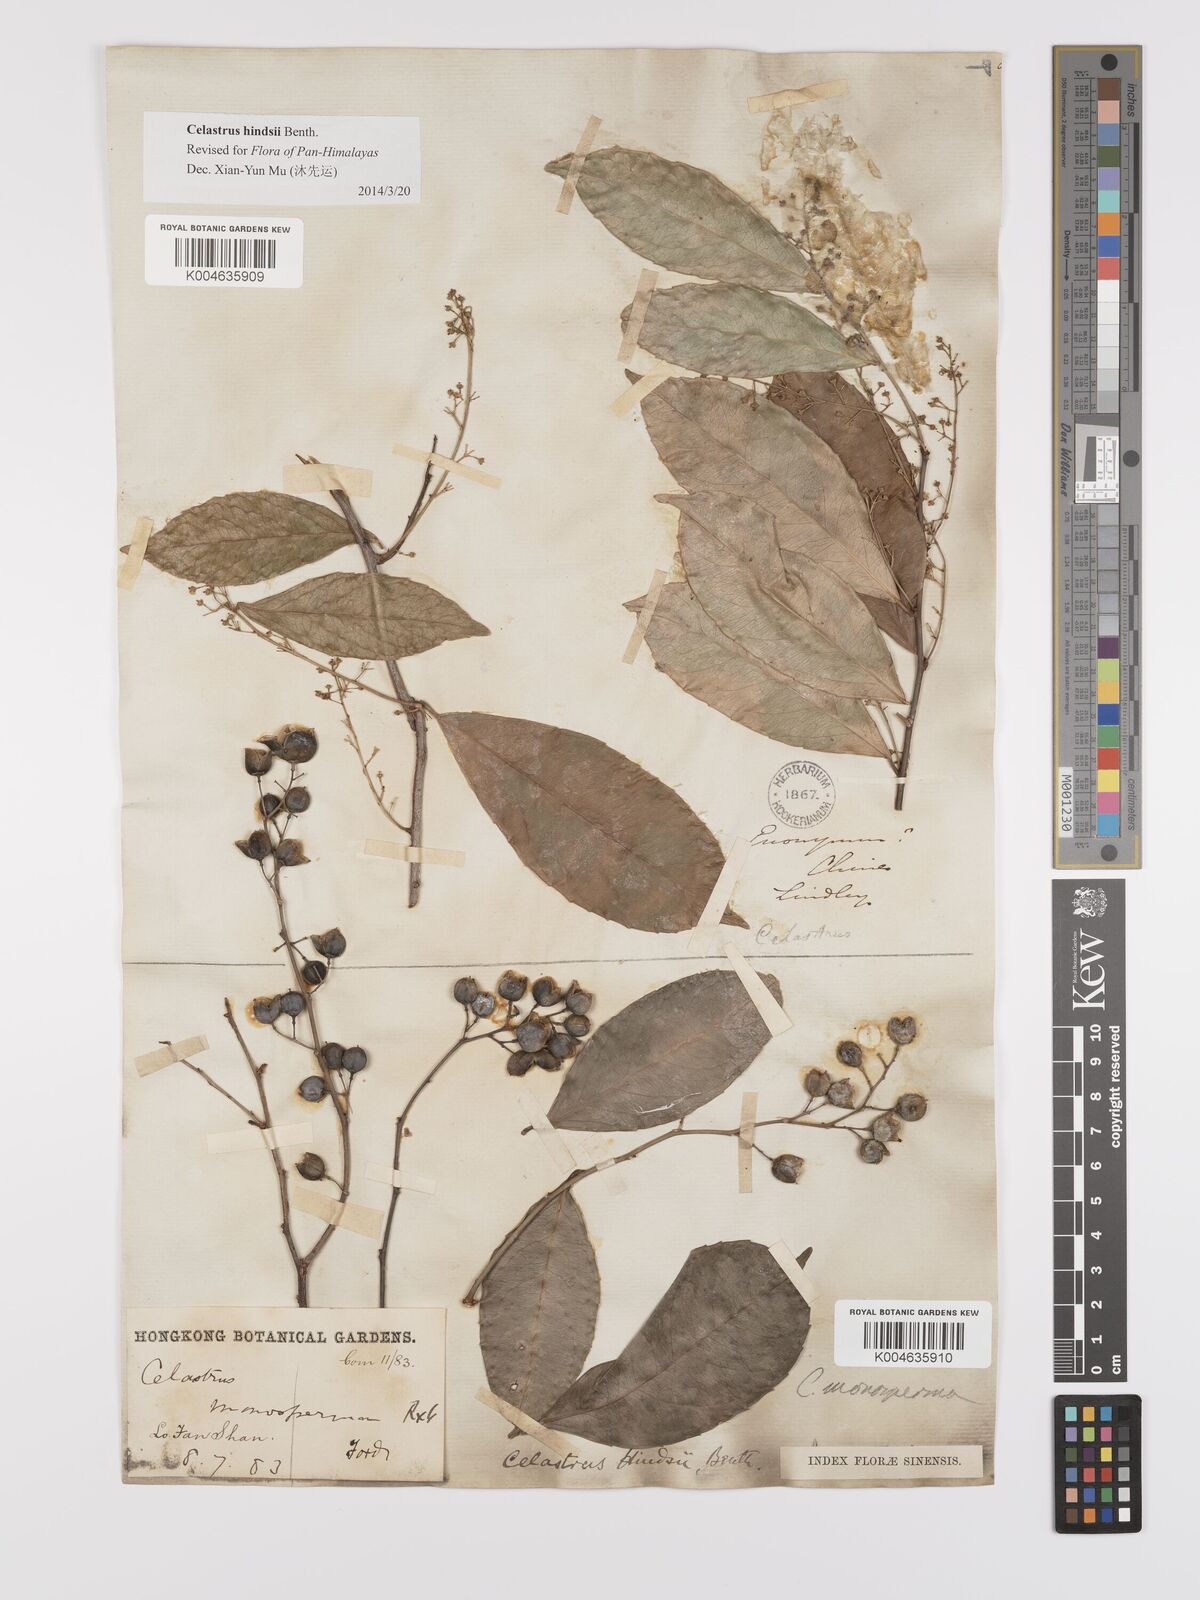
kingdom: Plantae
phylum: Tracheophyta
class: Magnoliopsida
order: Celastrales
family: Celastraceae
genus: Celastrus
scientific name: Celastrus hindsii
